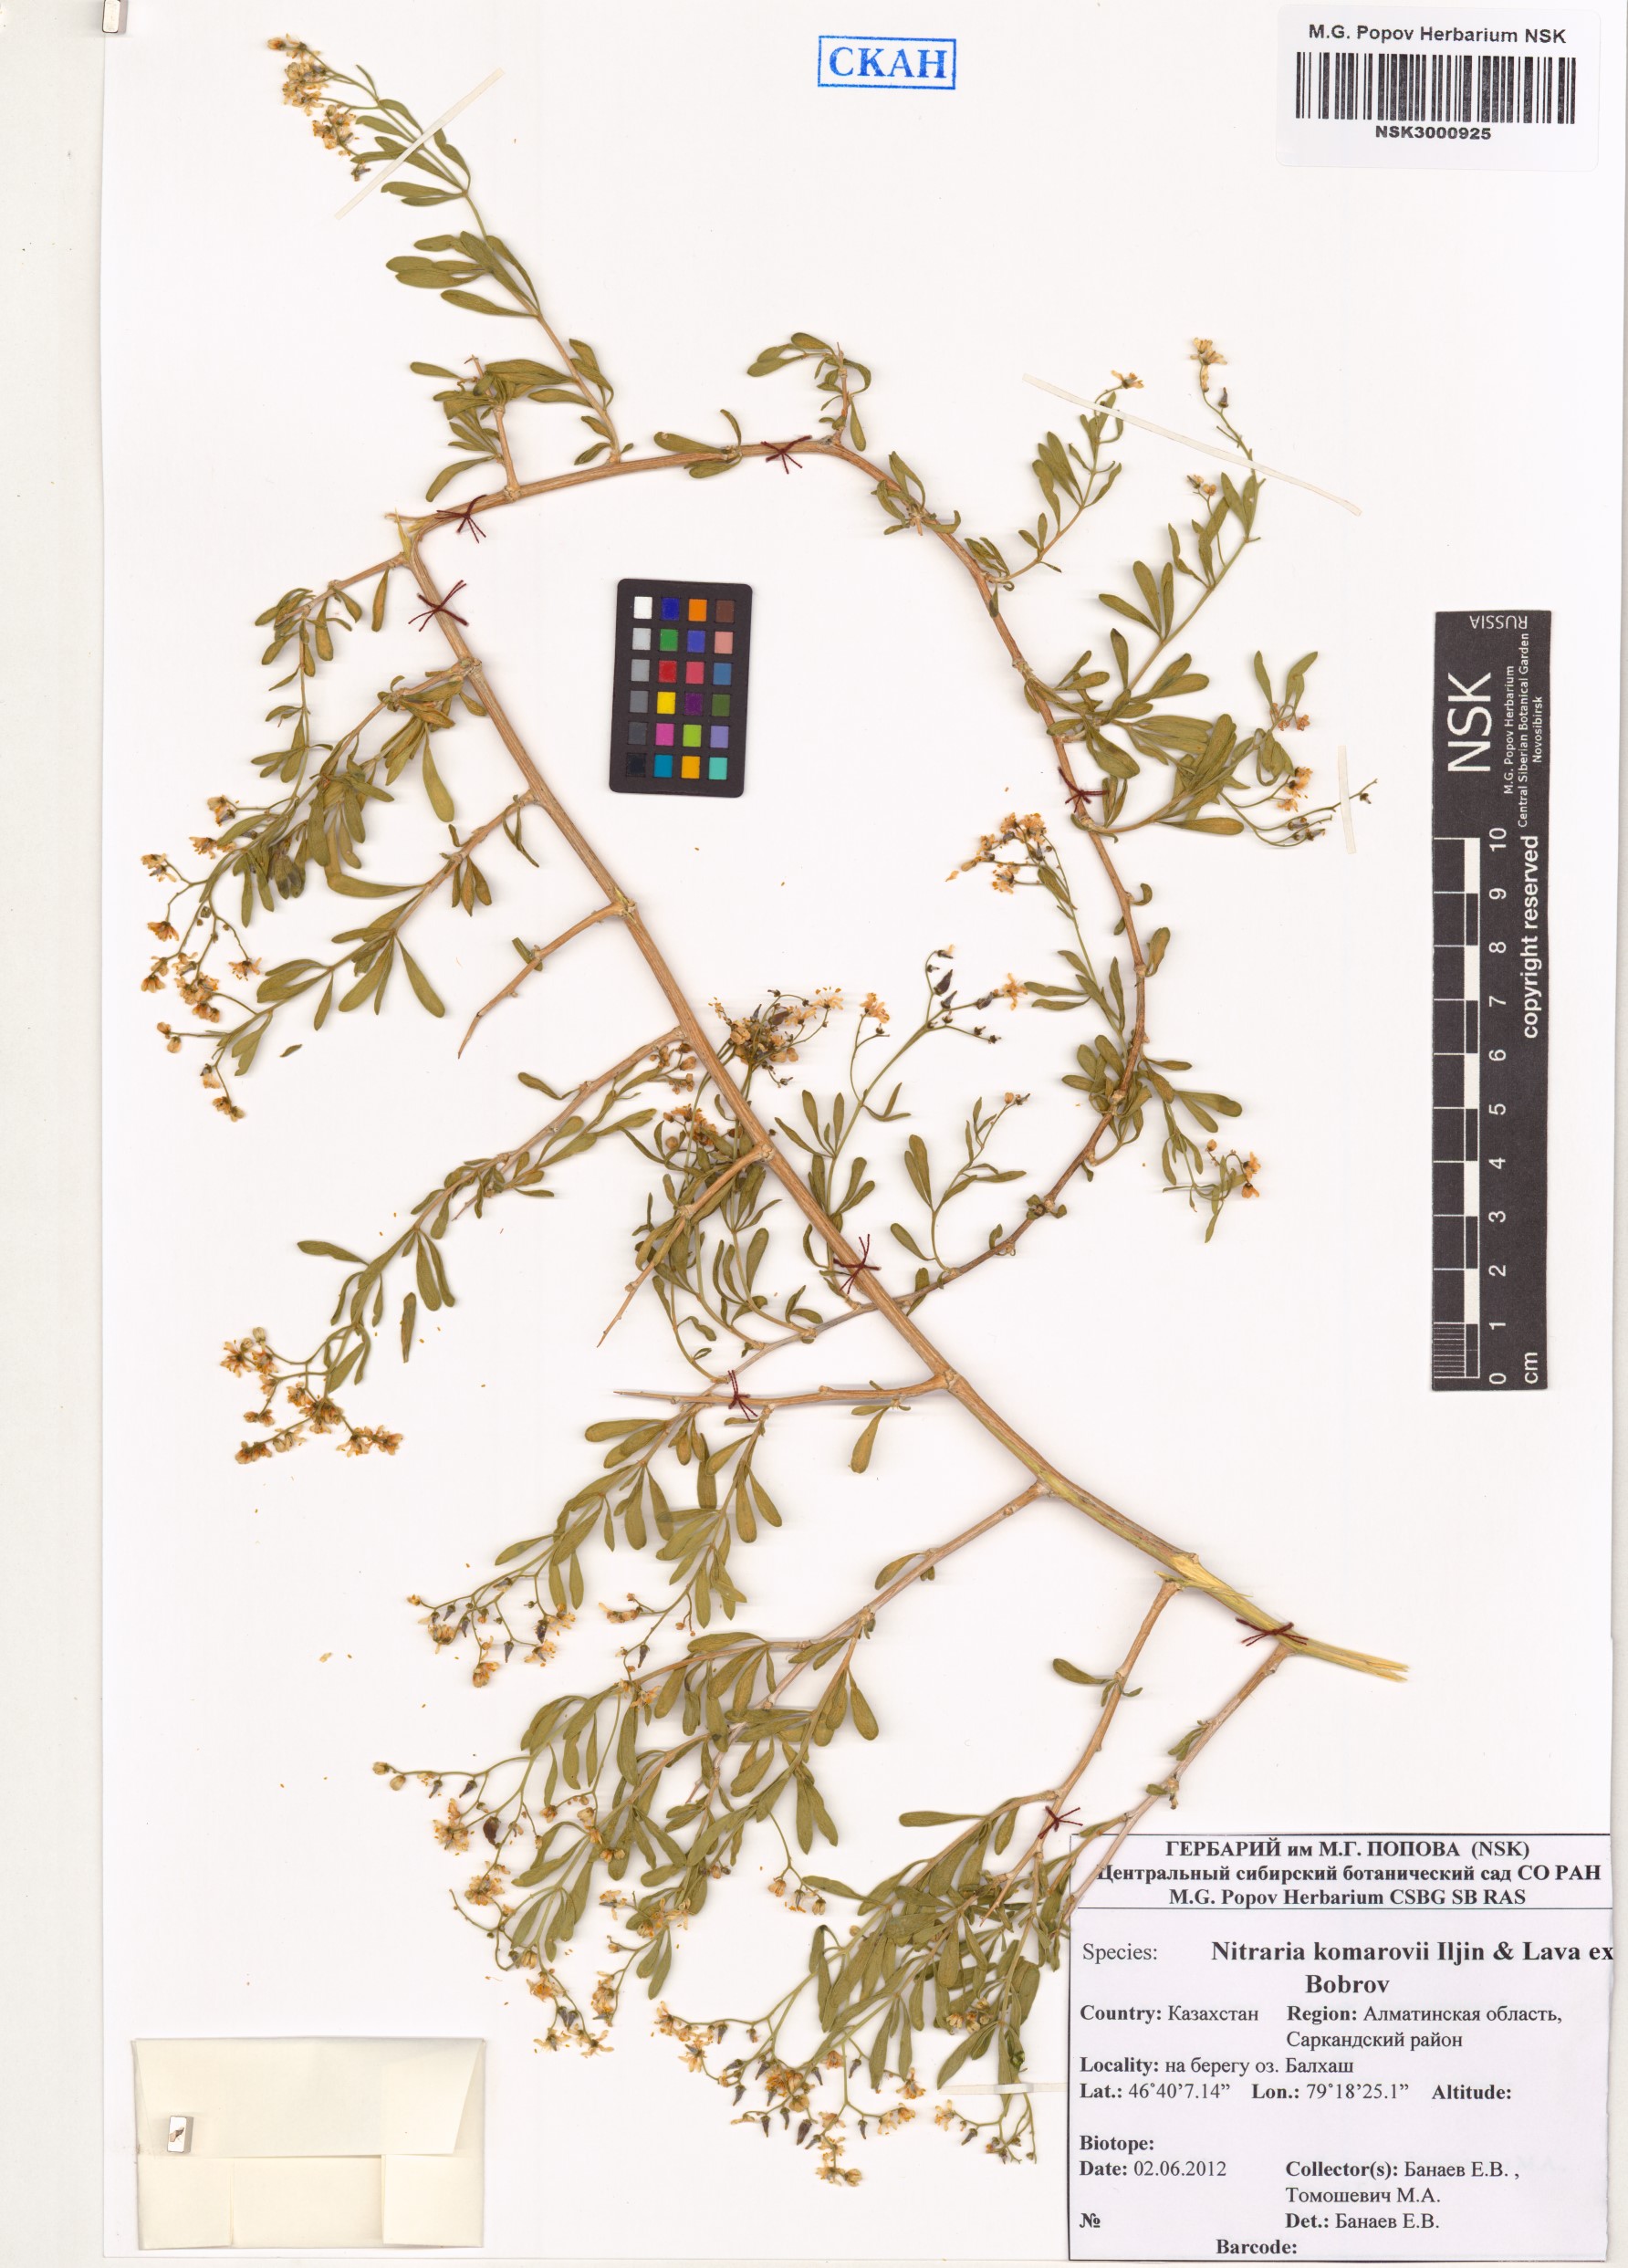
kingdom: Plantae
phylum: Tracheophyta
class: Magnoliopsida
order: Sapindales
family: Nitrariaceae
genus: Nitraria
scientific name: Nitraria komarovii
